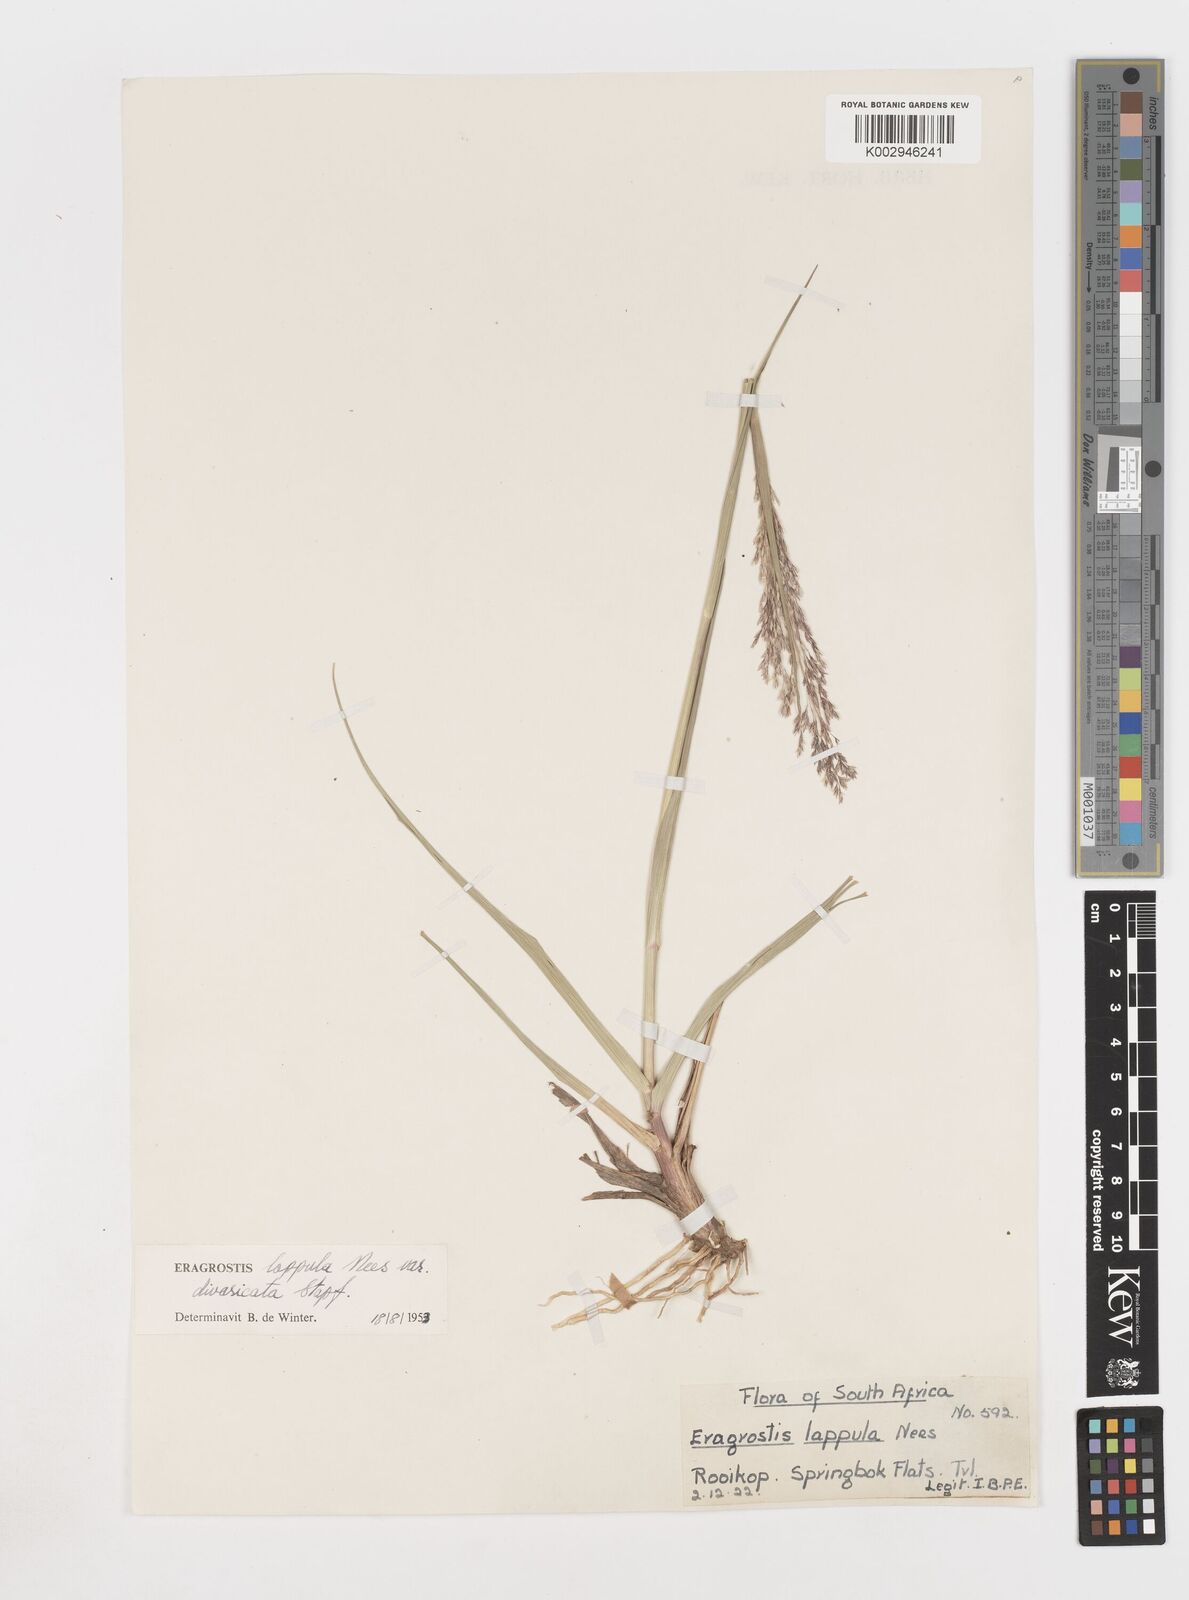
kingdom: Plantae
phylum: Tracheophyta
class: Liliopsida
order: Poales
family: Poaceae
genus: Eragrostis
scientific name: Eragrostis lappula
